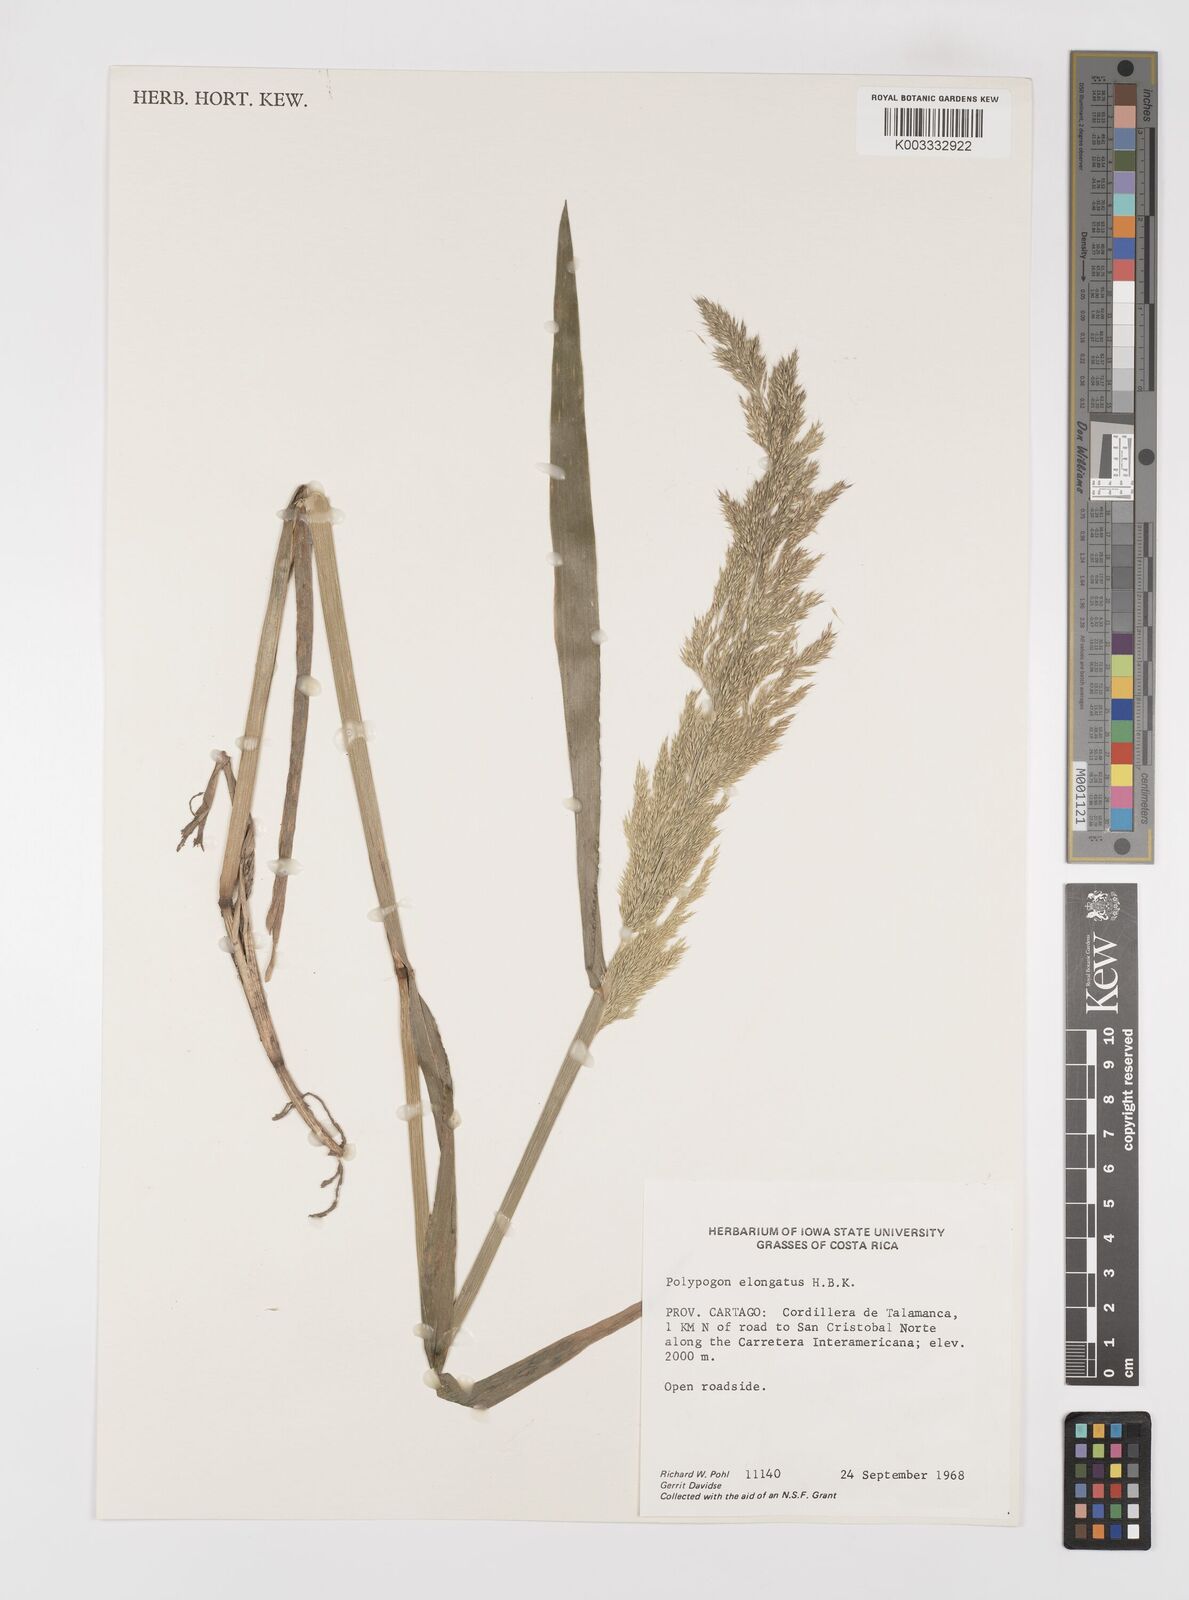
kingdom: Plantae
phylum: Tracheophyta
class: Liliopsida
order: Poales
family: Poaceae
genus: Polypogon
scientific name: Polypogon elongatus
